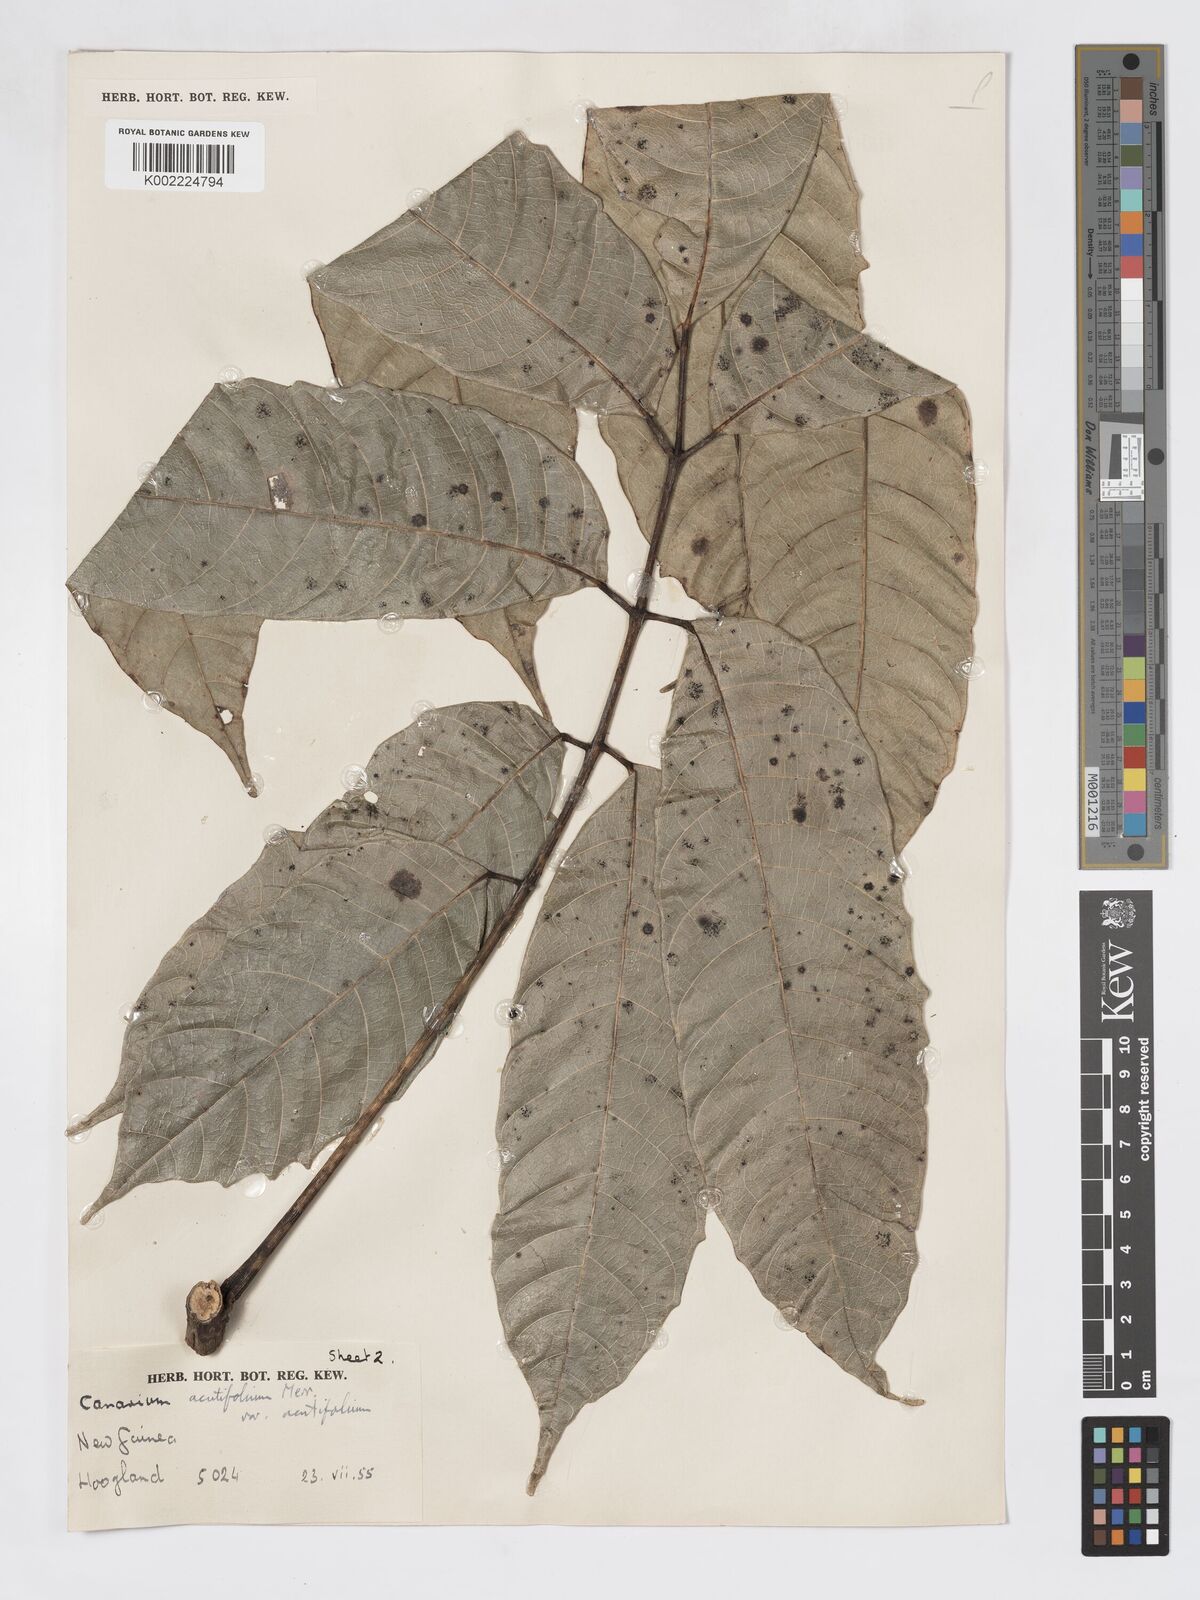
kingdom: Plantae
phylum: Tracheophyta
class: Magnoliopsida
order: Sapindales
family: Burseraceae
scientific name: Burseraceae
